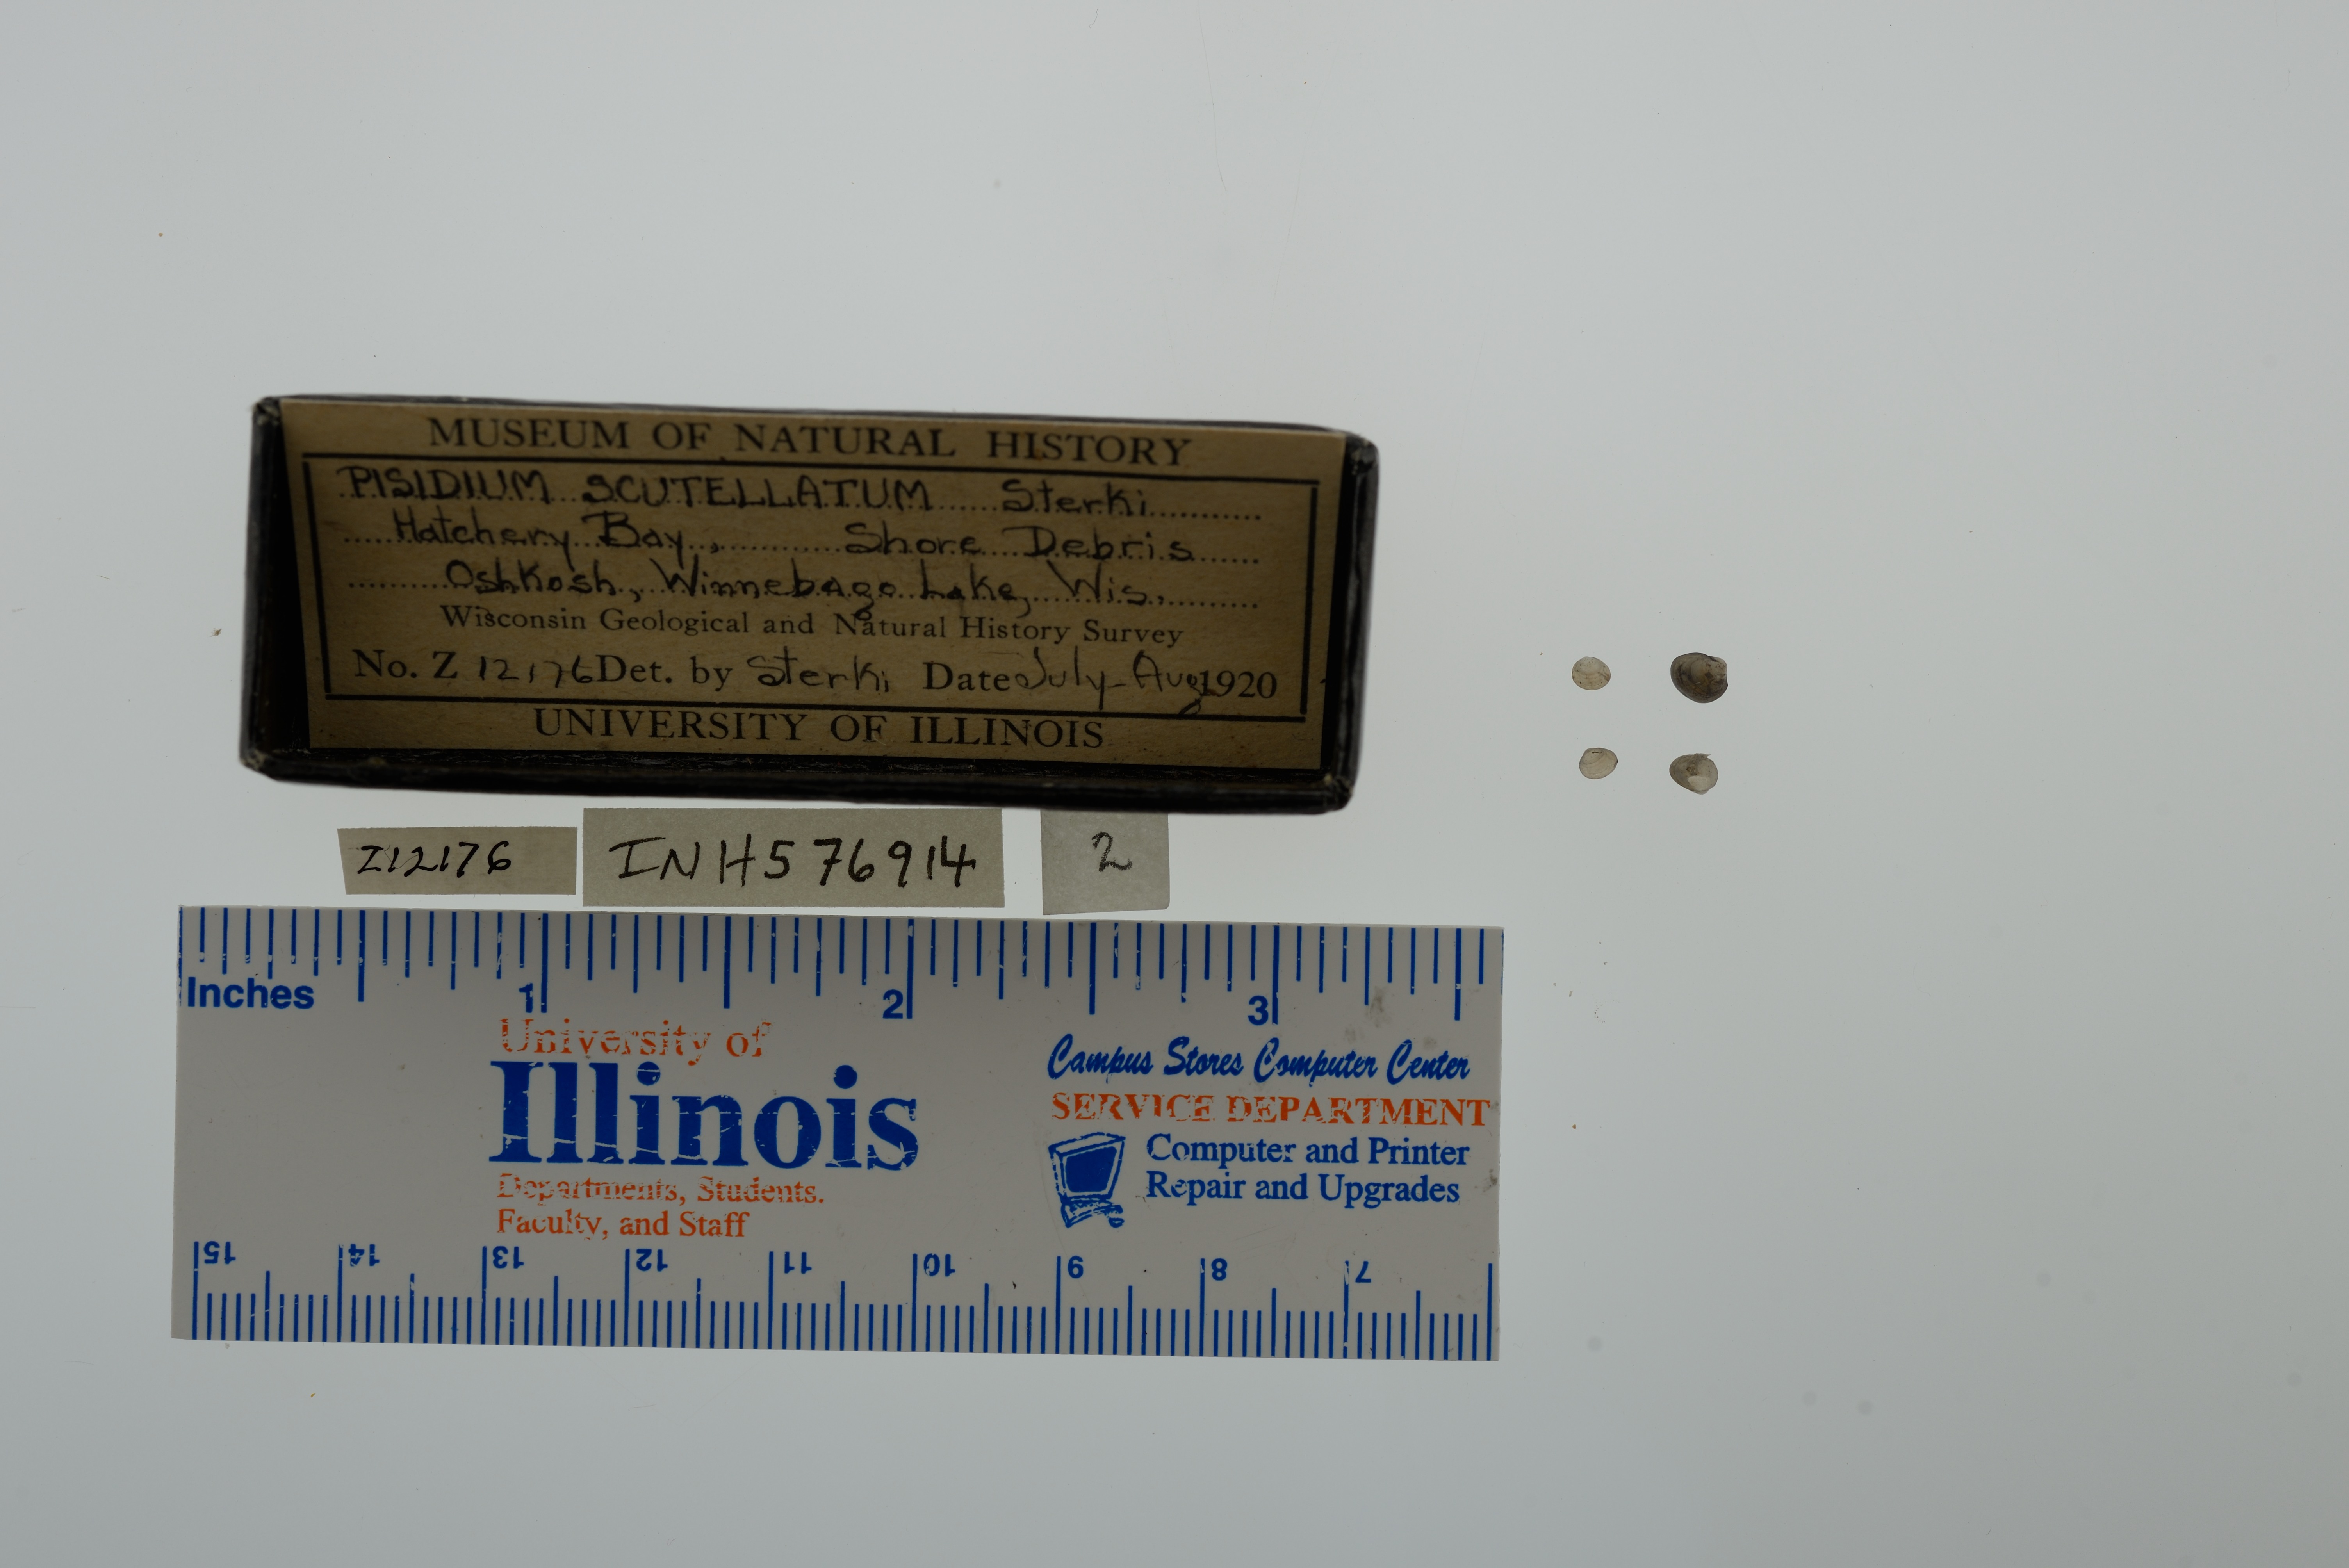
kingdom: Animalia
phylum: Mollusca
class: Bivalvia
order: Sphaeriida
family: Sphaeriidae
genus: Euglesa
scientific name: Euglesa lilljeborgii
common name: Lilljeborg peaclam
